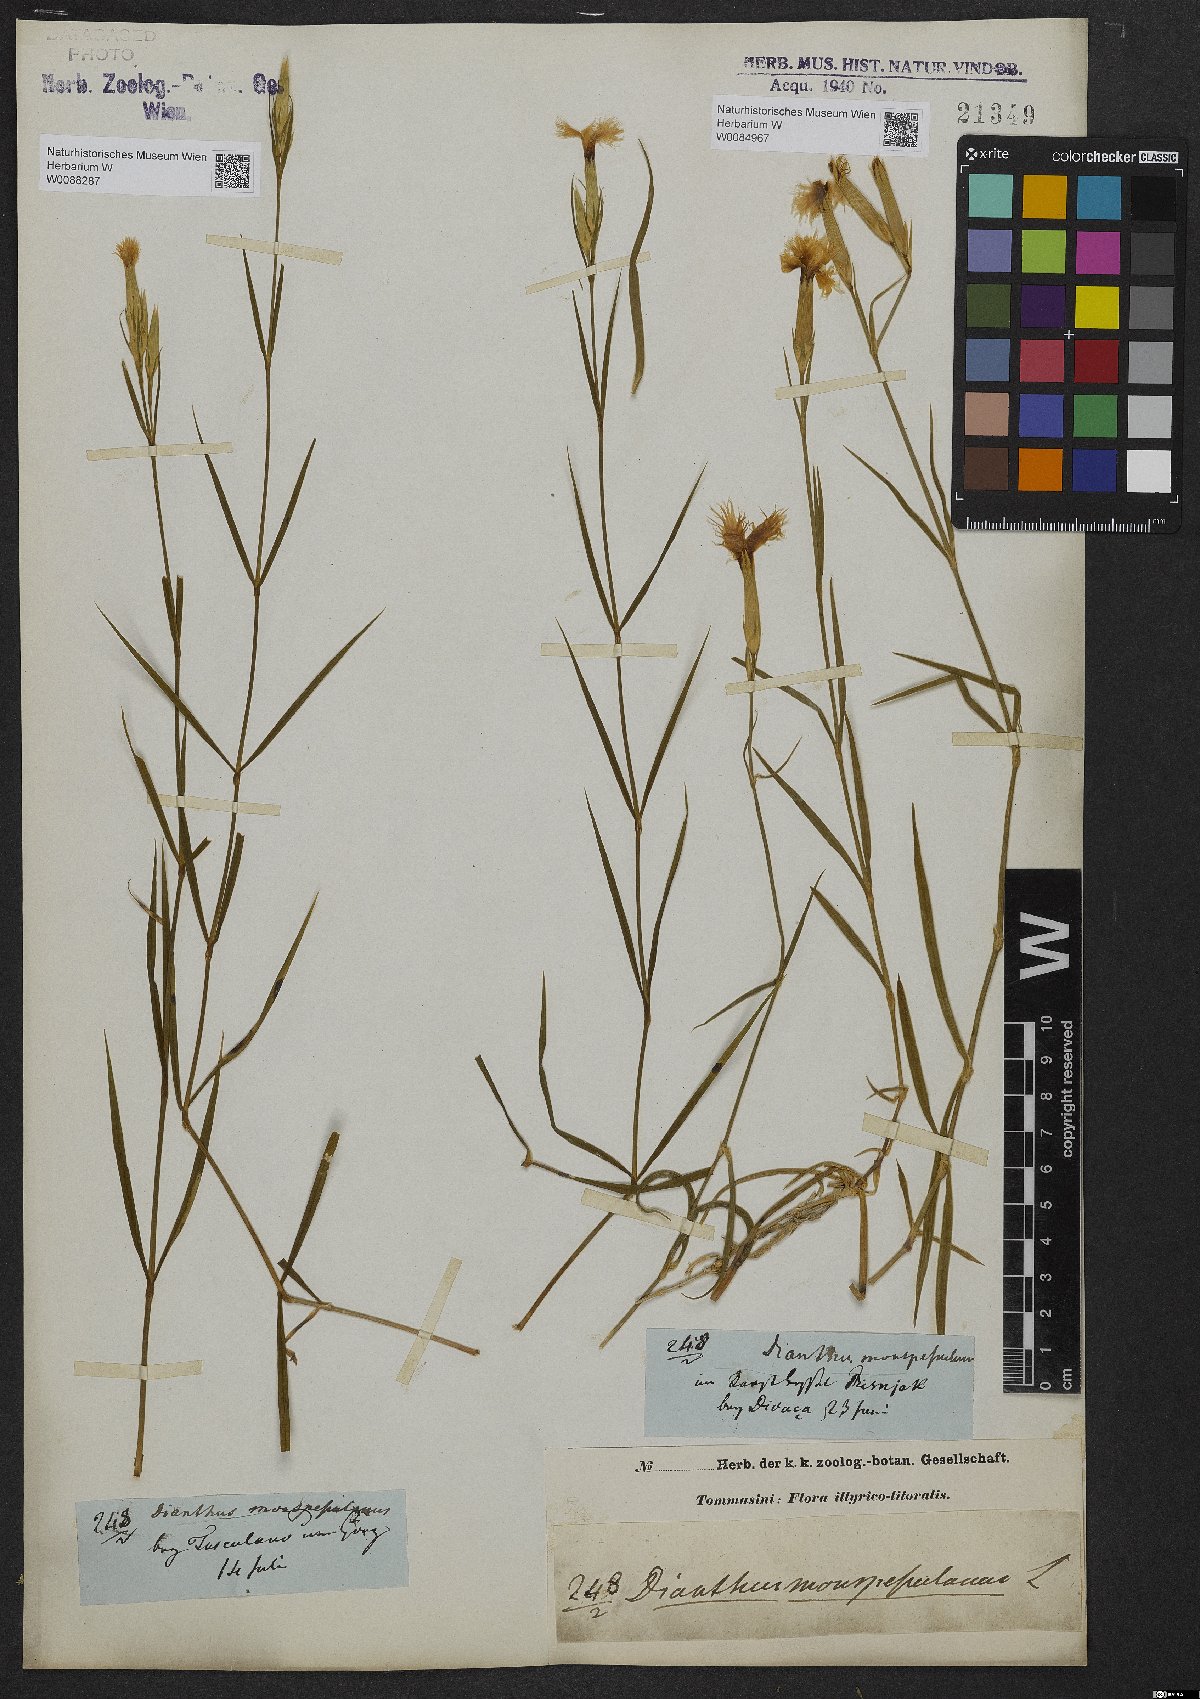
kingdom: Plantae
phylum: Tracheophyta
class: Magnoliopsida
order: Caryophyllales
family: Caryophyllaceae
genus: Dianthus
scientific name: Dianthus hyssopifolius
